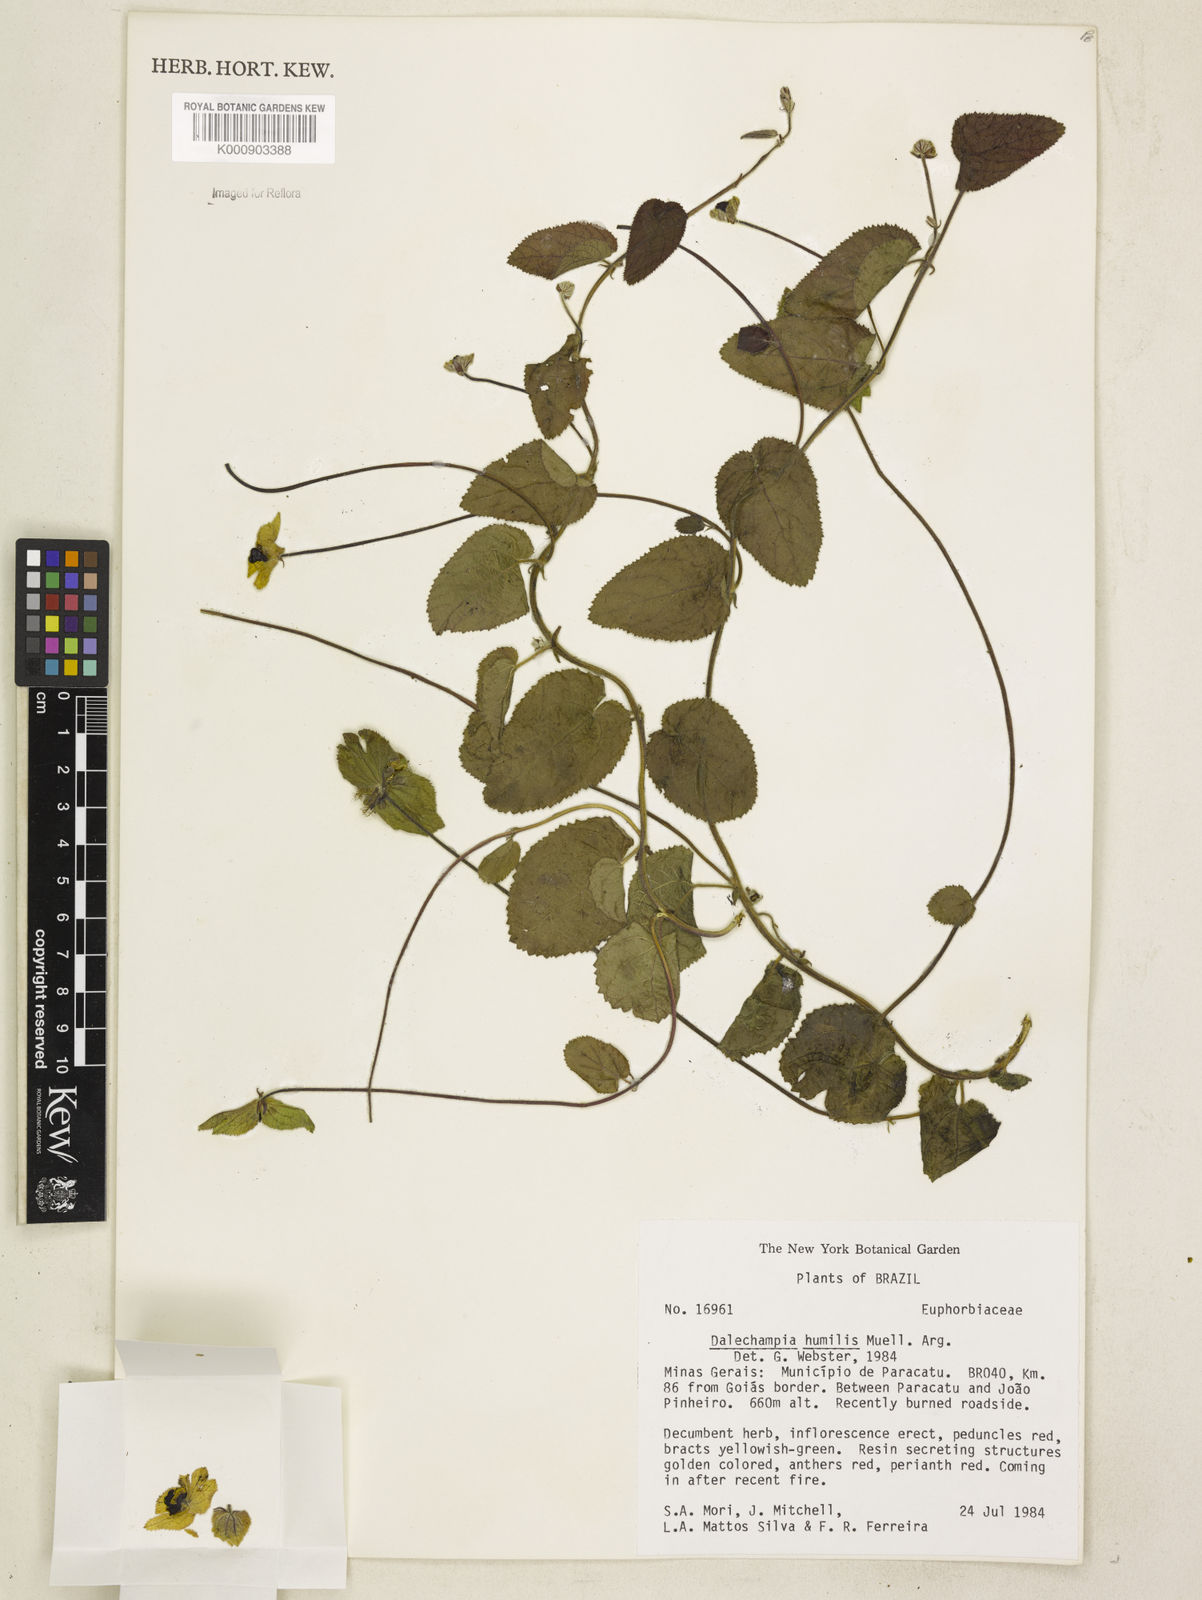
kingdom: Plantae
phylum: Tracheophyta
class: Magnoliopsida
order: Malpighiales
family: Euphorbiaceae
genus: Dalechampia
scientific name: Dalechampia
